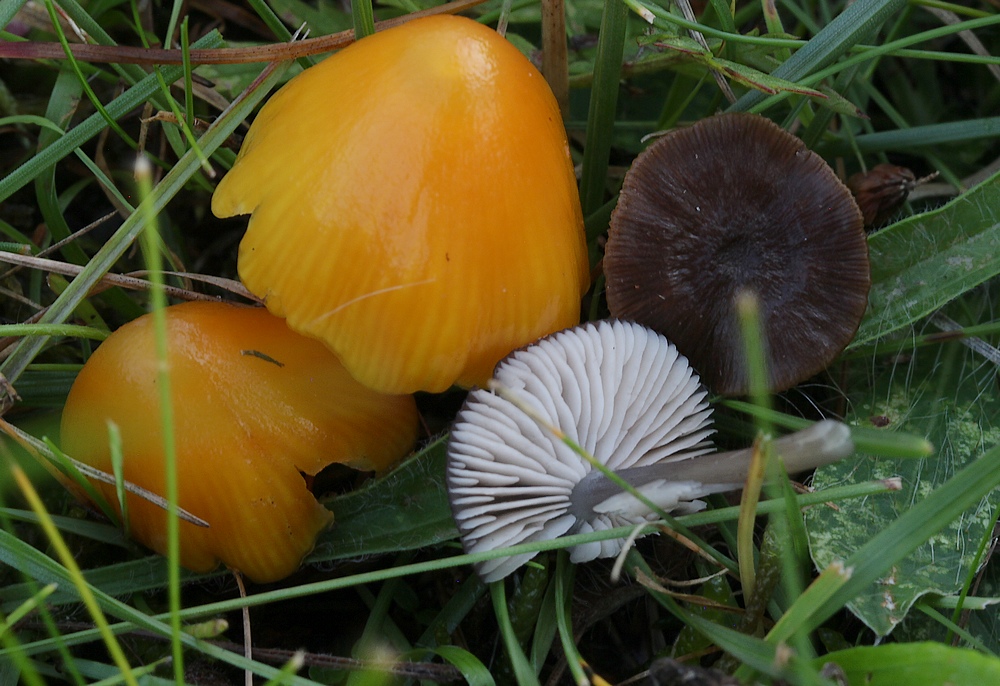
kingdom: Fungi
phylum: Basidiomycota
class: Agaricomycetes
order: Agaricales
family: Entolomataceae
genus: Entoloma
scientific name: Entoloma
